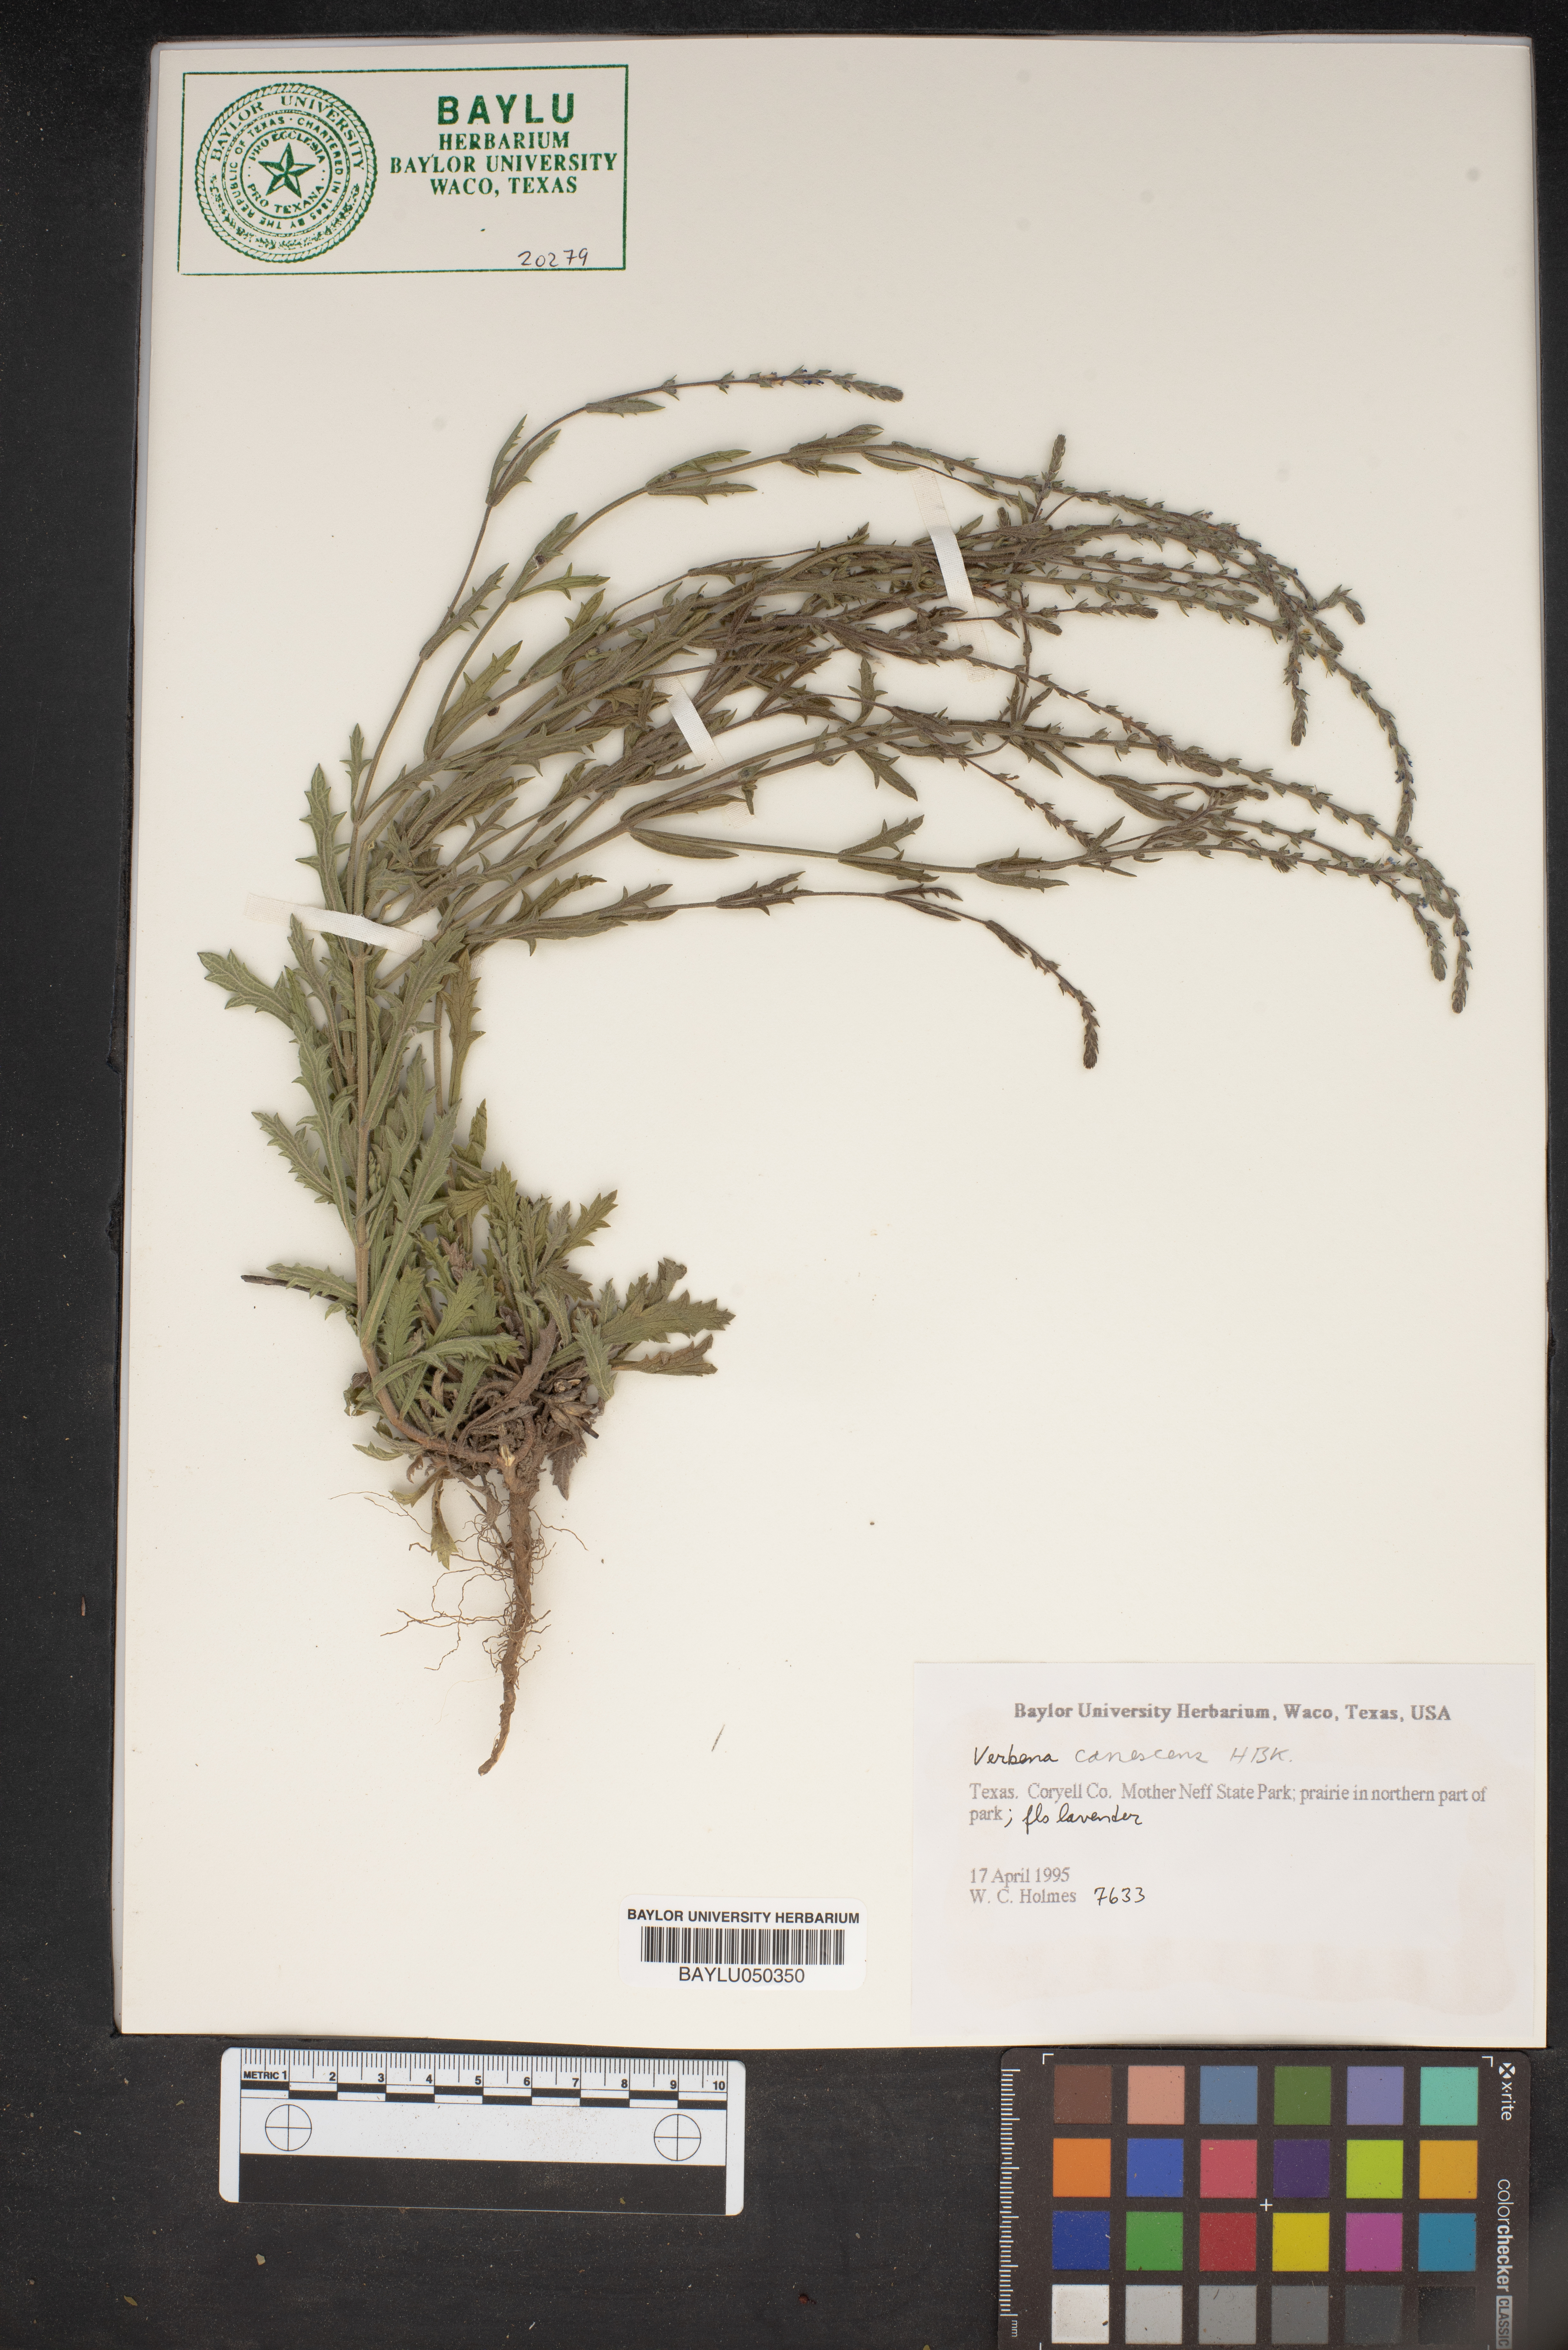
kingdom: Plantae
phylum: Tracheophyta
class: Magnoliopsida
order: Lamiales
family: Verbenaceae
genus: Verbena
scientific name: Verbena canescens
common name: Gray vervain
